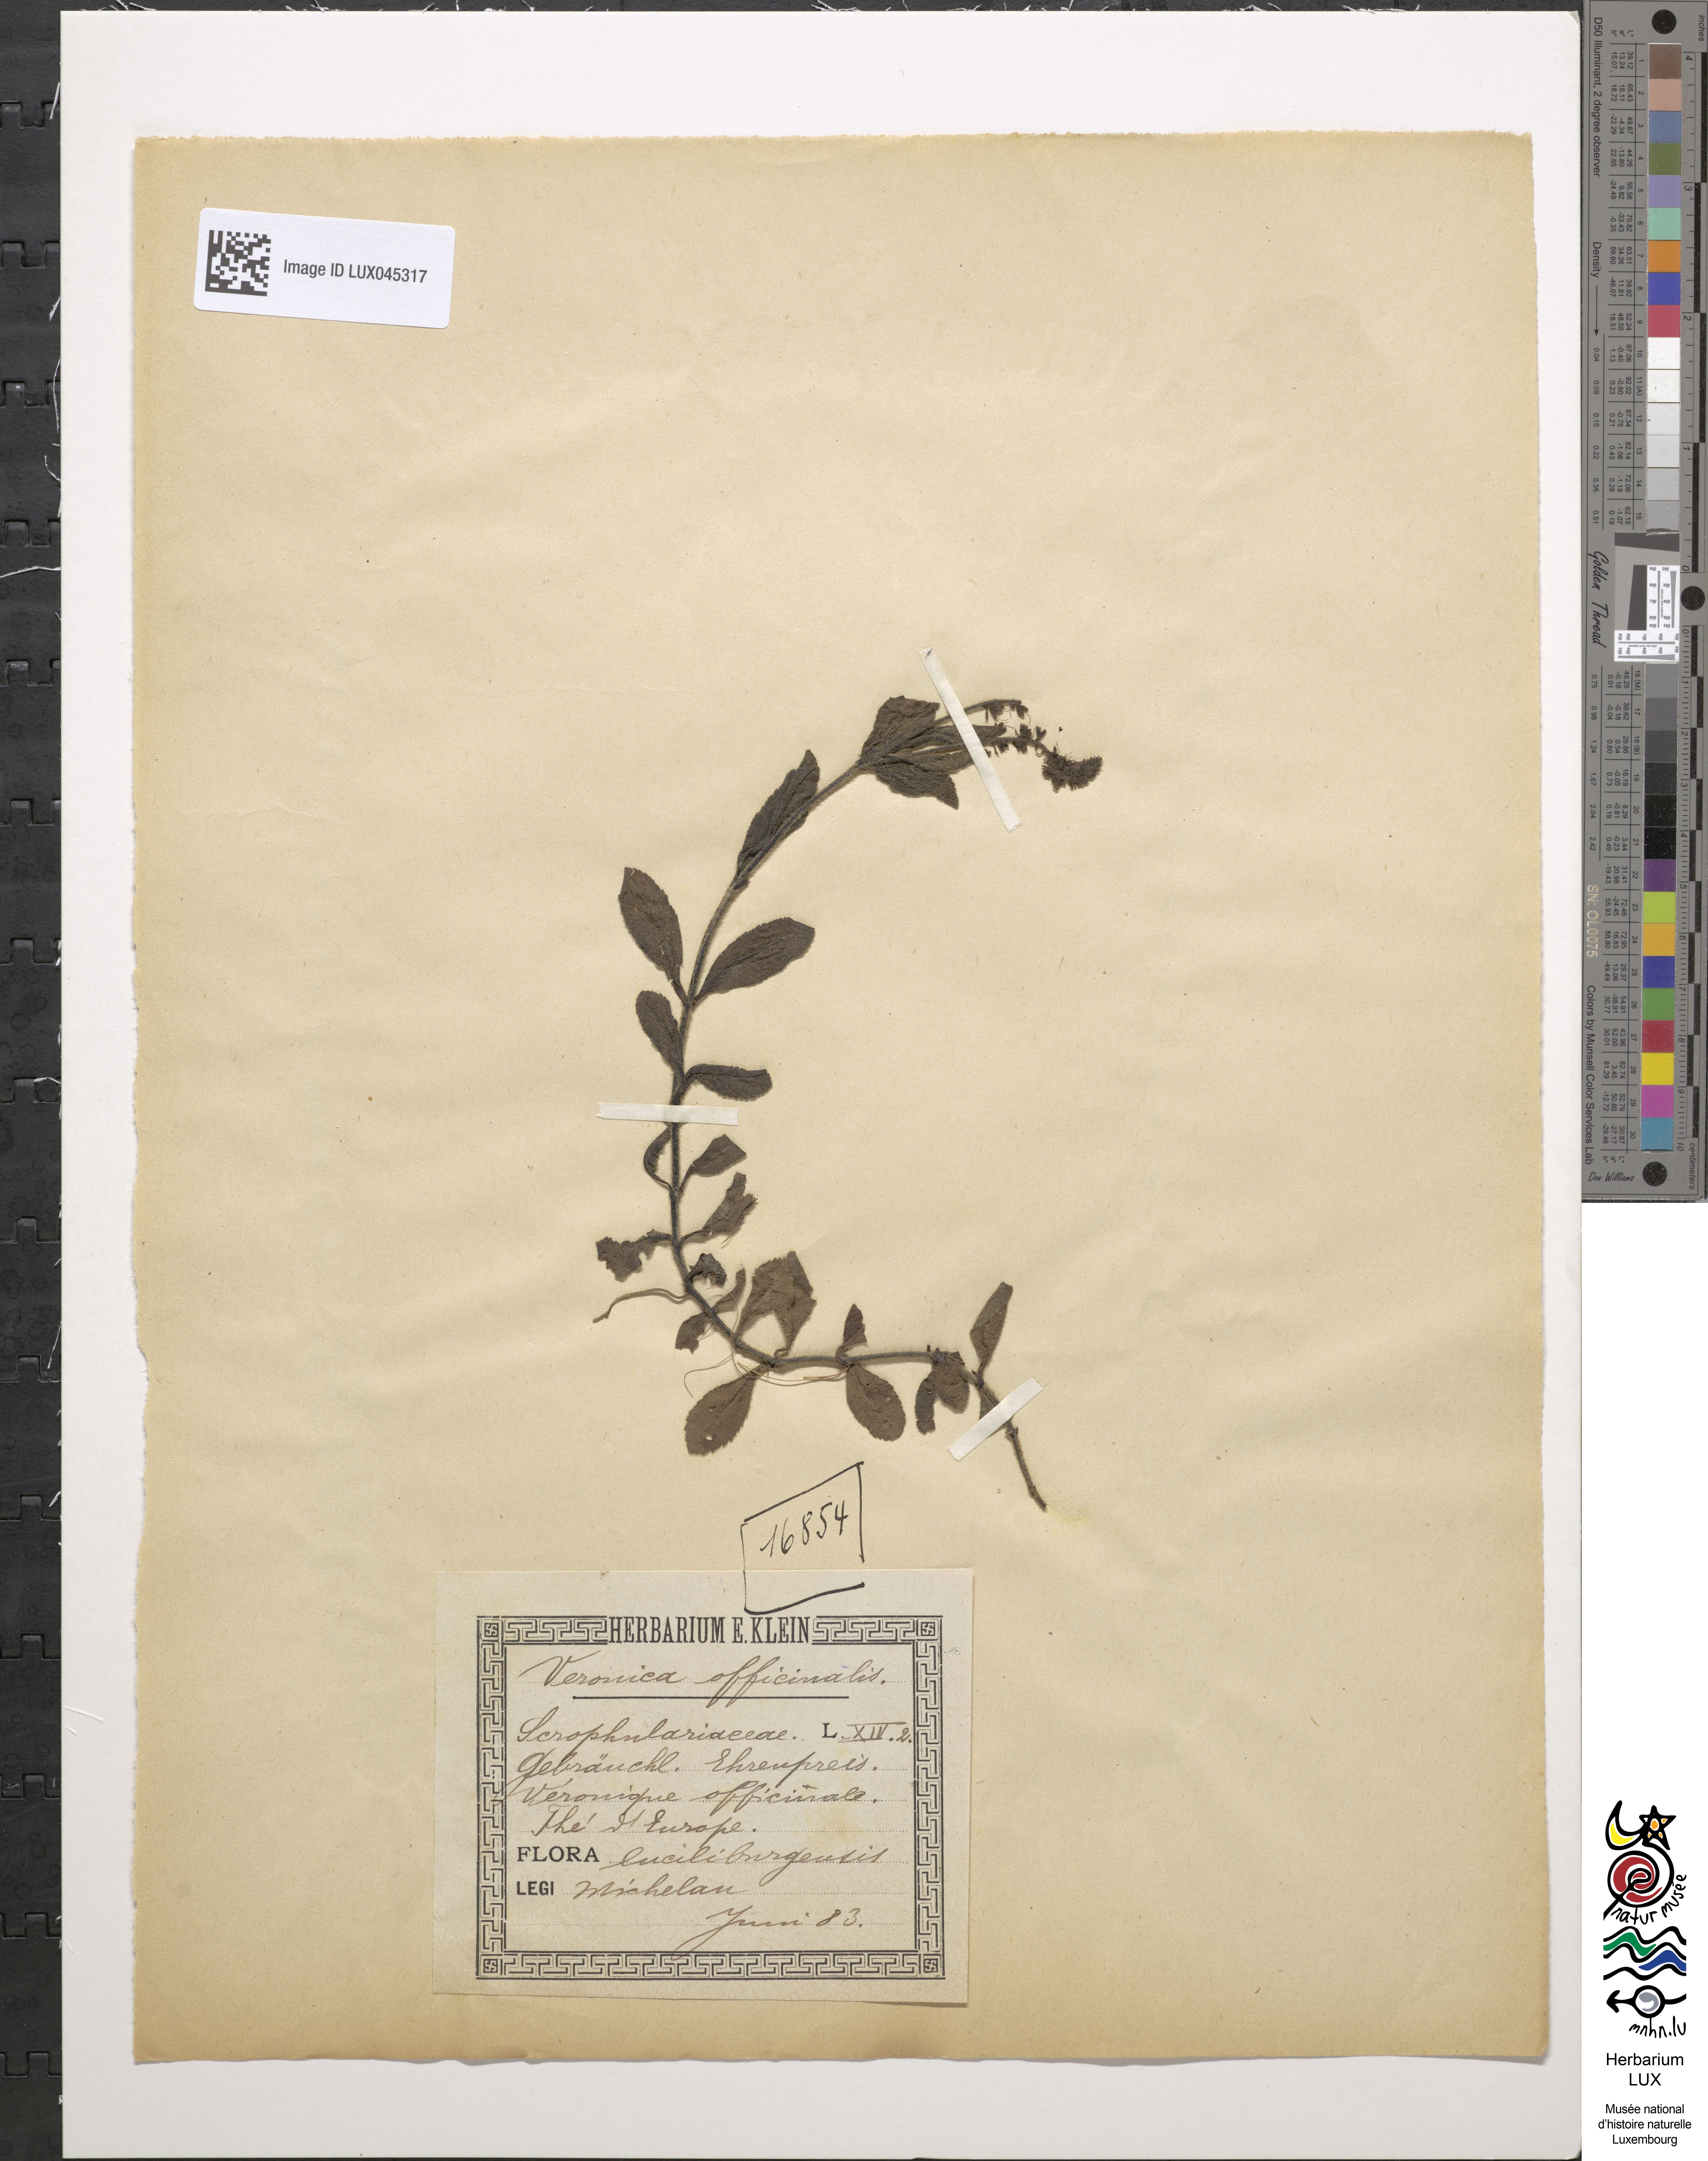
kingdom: Plantae
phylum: Tracheophyta
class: Magnoliopsida
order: Lamiales
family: Plantaginaceae
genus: Veronica
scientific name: Veronica officinalis
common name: Common speedwell
